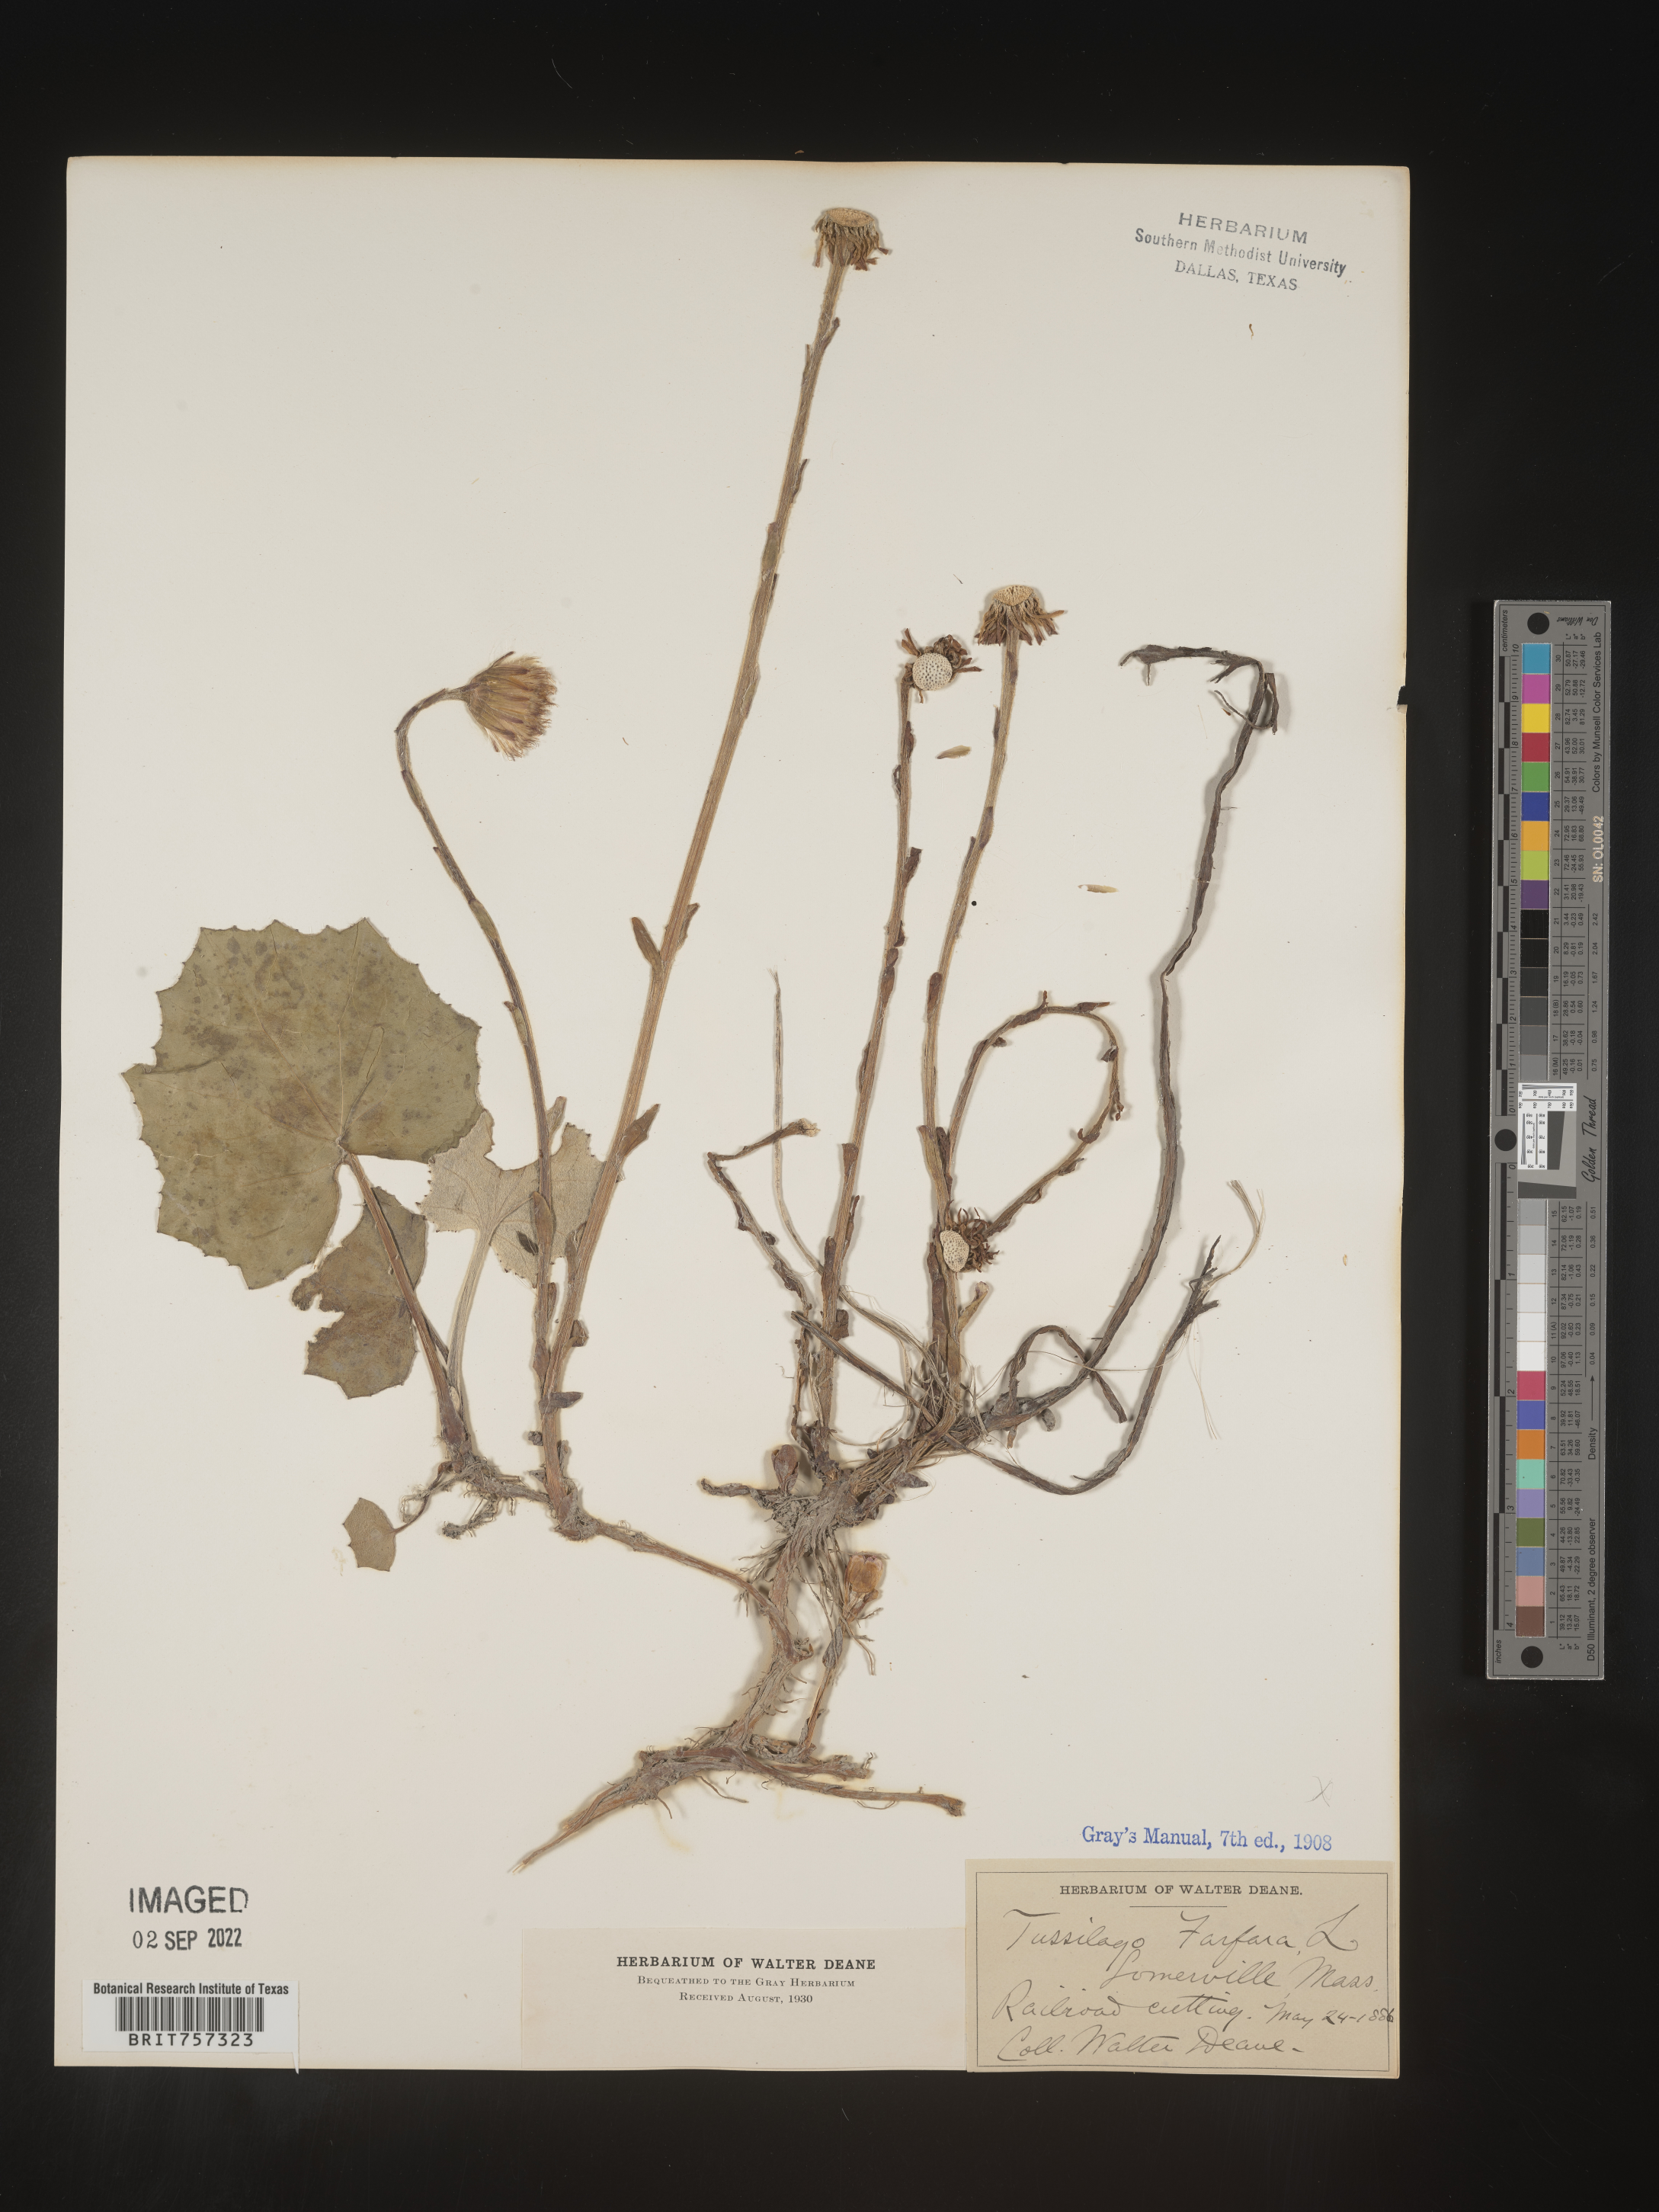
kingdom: Plantae
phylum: Tracheophyta
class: Magnoliopsida
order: Asterales
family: Asteraceae
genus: Tussilago
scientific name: Tussilago
